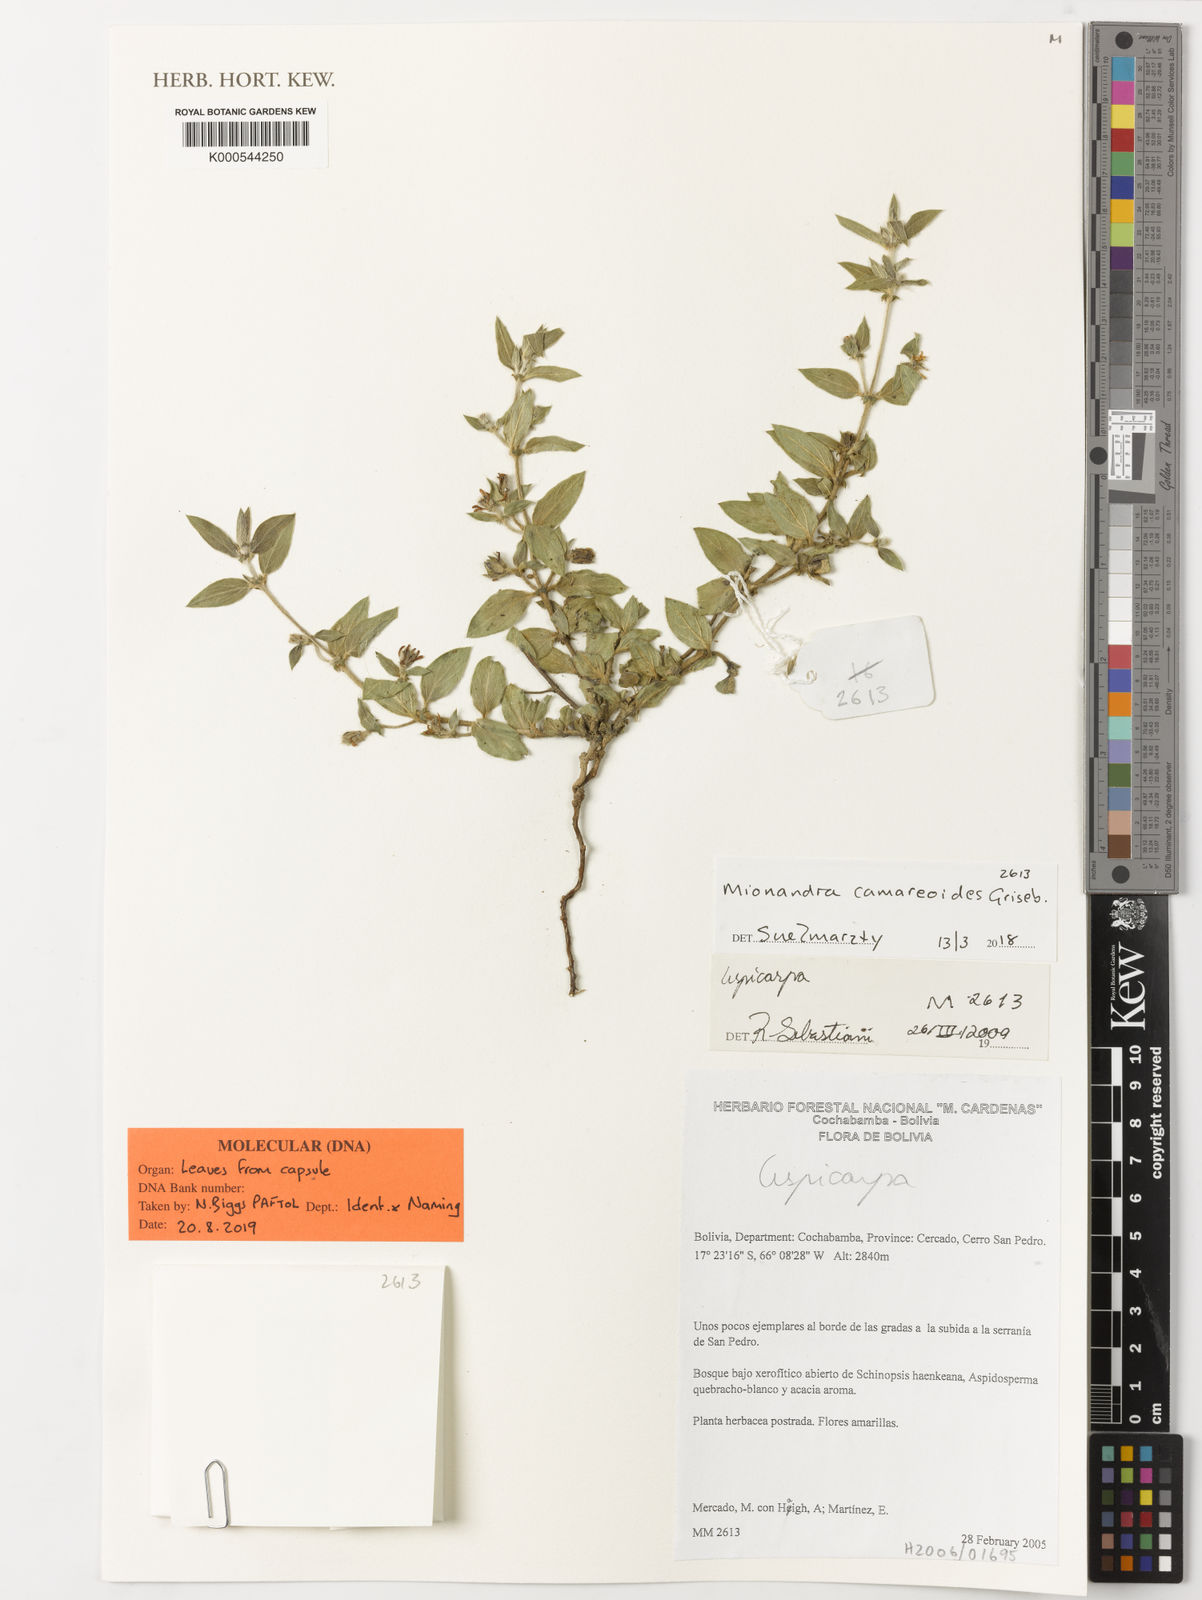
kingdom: Plantae
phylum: Tracheophyta
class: Magnoliopsida
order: Malpighiales
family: Malpighiaceae
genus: Mionandra
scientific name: Mionandra camareoides
